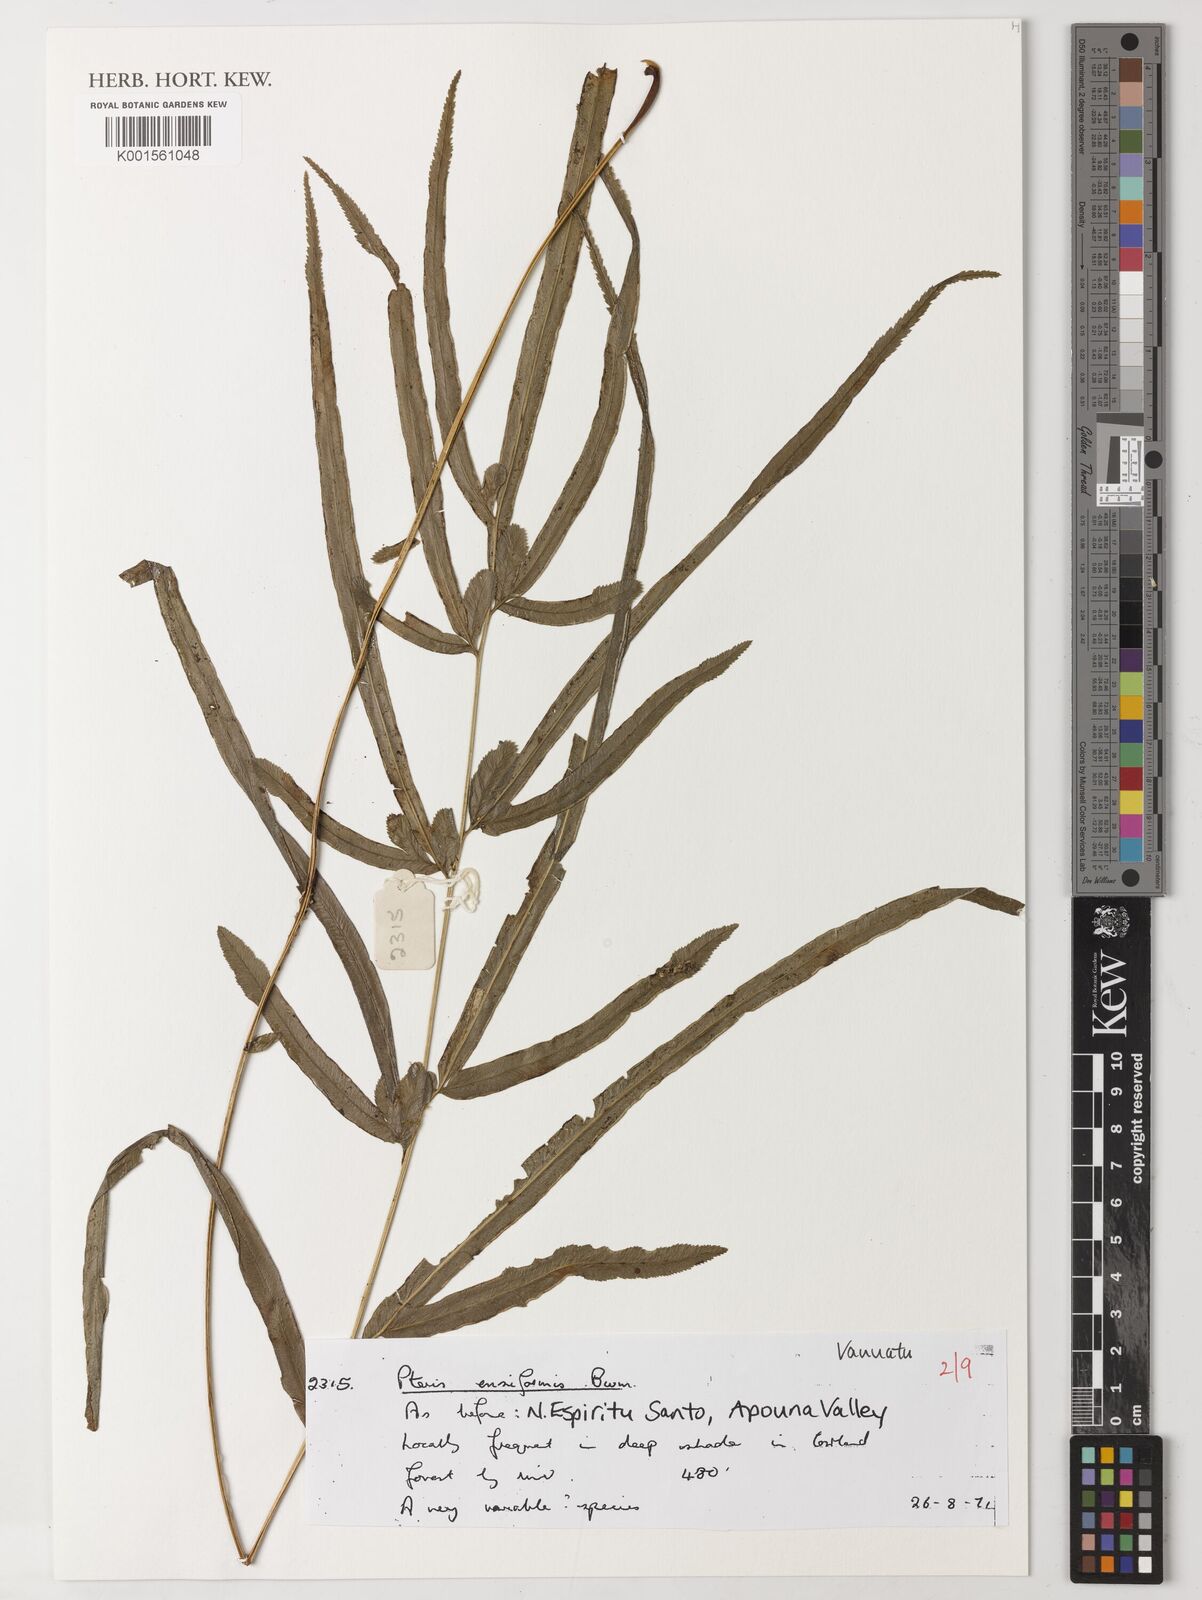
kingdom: Plantae
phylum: Tracheophyta
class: Polypodiopsida
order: Polypodiales
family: Pteridaceae
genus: Pteris
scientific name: Pteris ensiformis
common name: Sword brake
